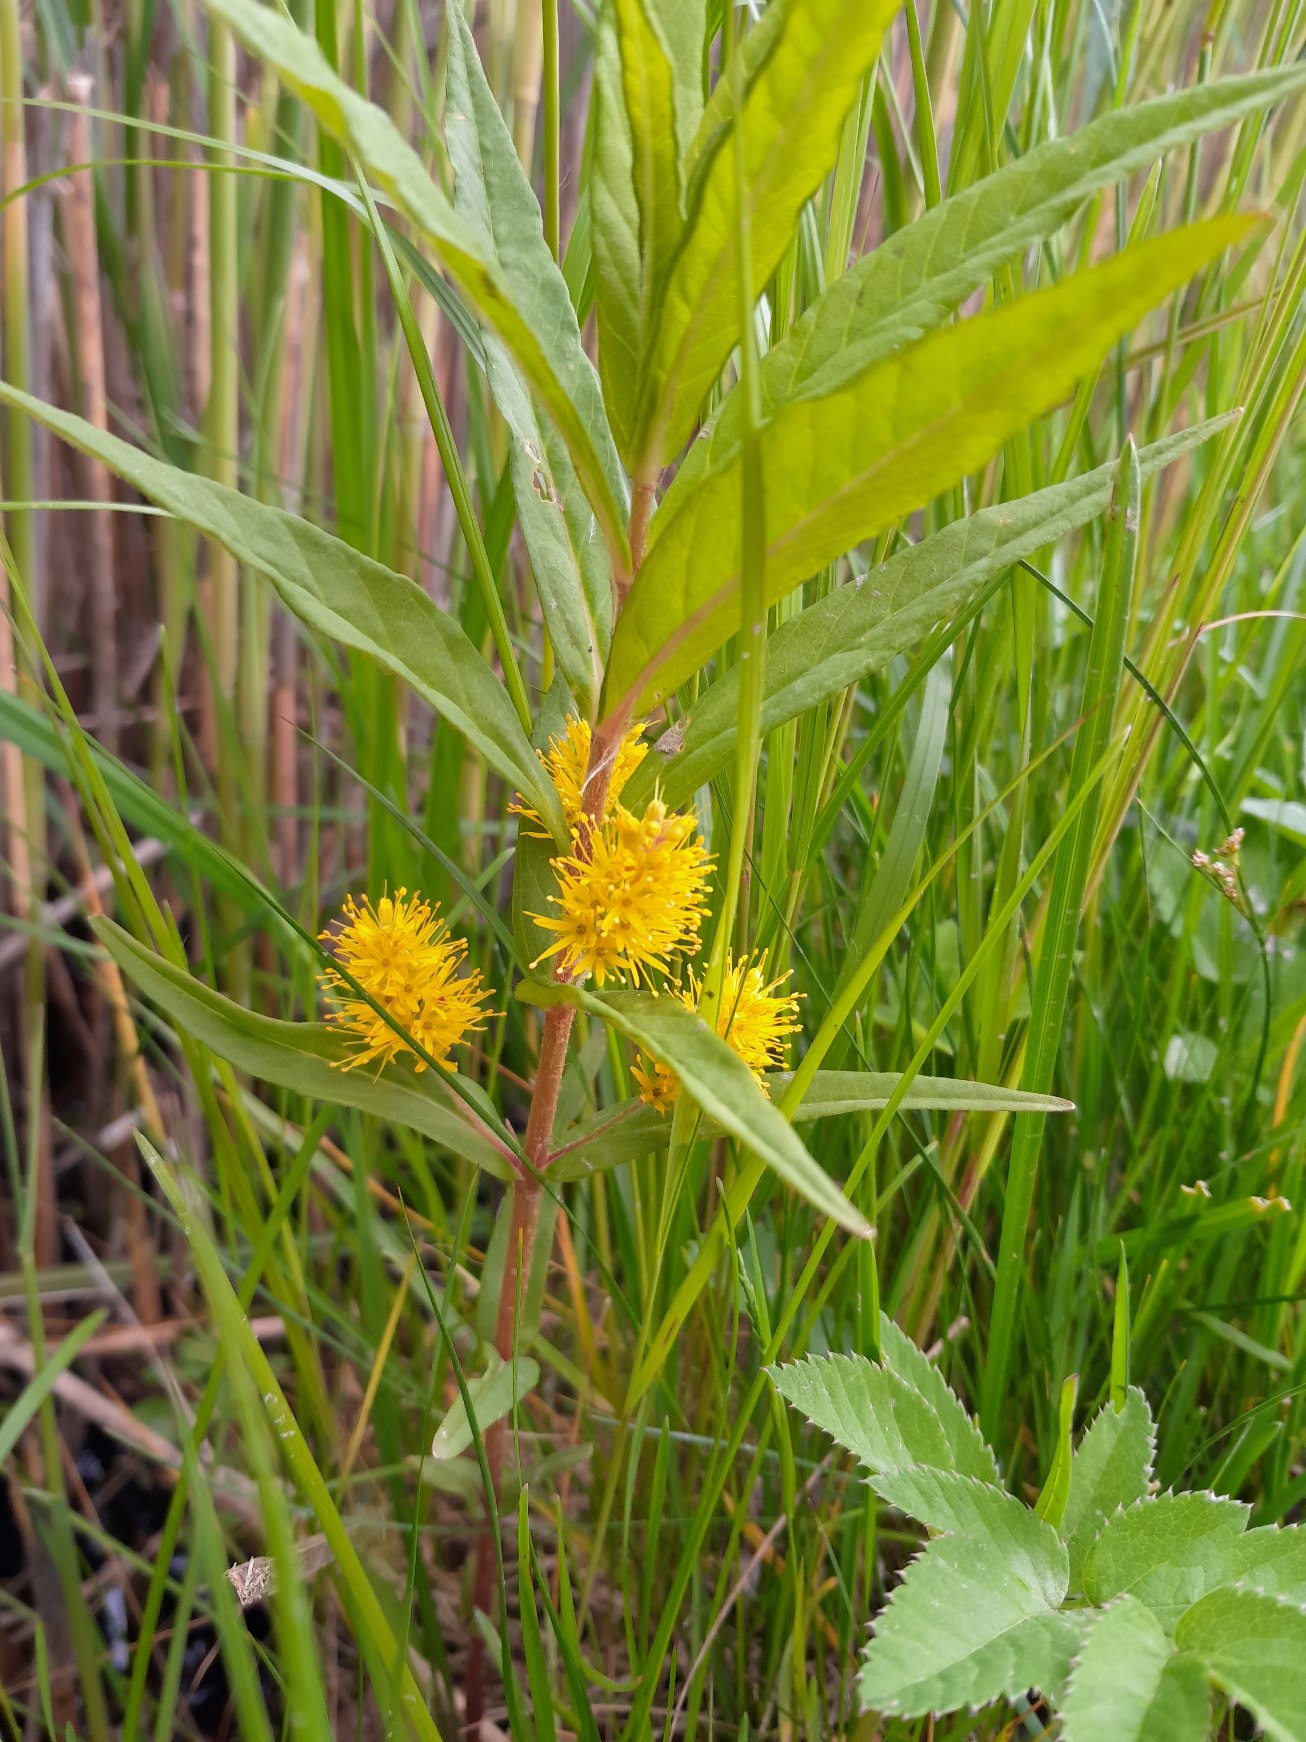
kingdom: Plantae
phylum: Tracheophyta
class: Magnoliopsida
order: Ericales
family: Primulaceae
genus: Lysimachia
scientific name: Lysimachia thyrsiflora
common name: Dusk-fredløs
